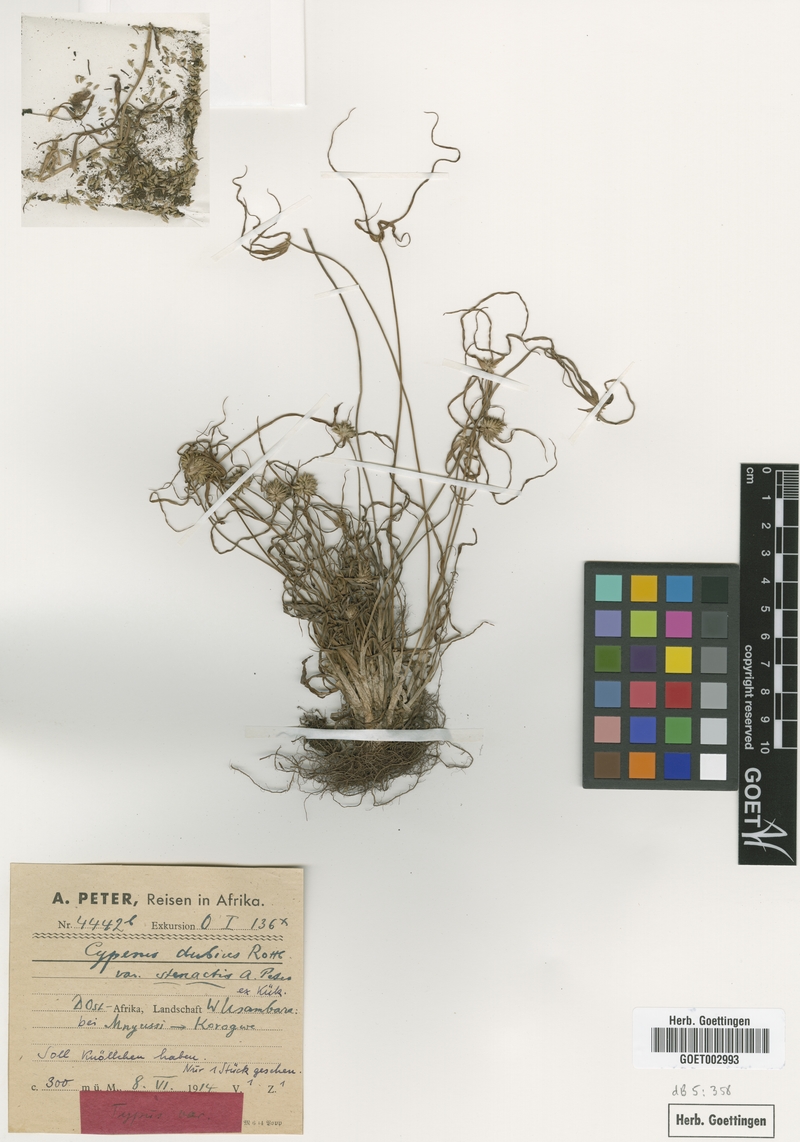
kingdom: Plantae
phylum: Tracheophyta
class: Liliopsida
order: Poales
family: Cyperaceae
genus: Cyperus
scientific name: Cyperus dubius
